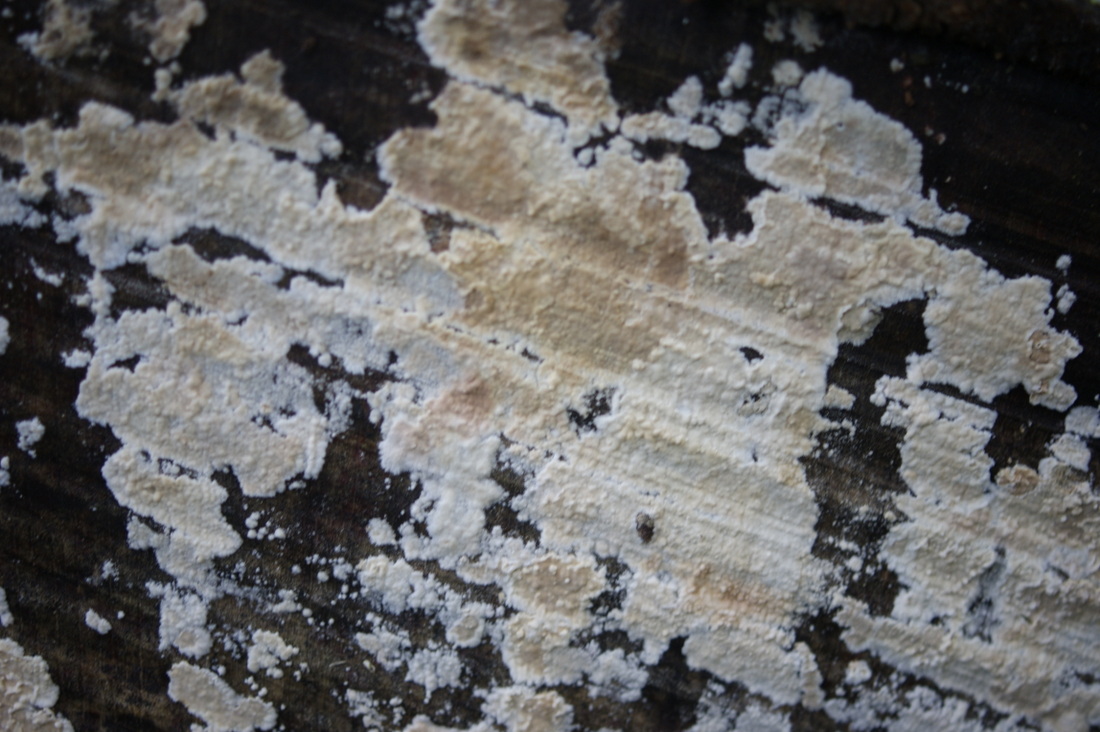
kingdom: Fungi
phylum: Basidiomycota
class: Agaricomycetes
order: Agaricales
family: Physalacriaceae
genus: Cylindrobasidium
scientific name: Cylindrobasidium evolvens
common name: sprækkehinde
